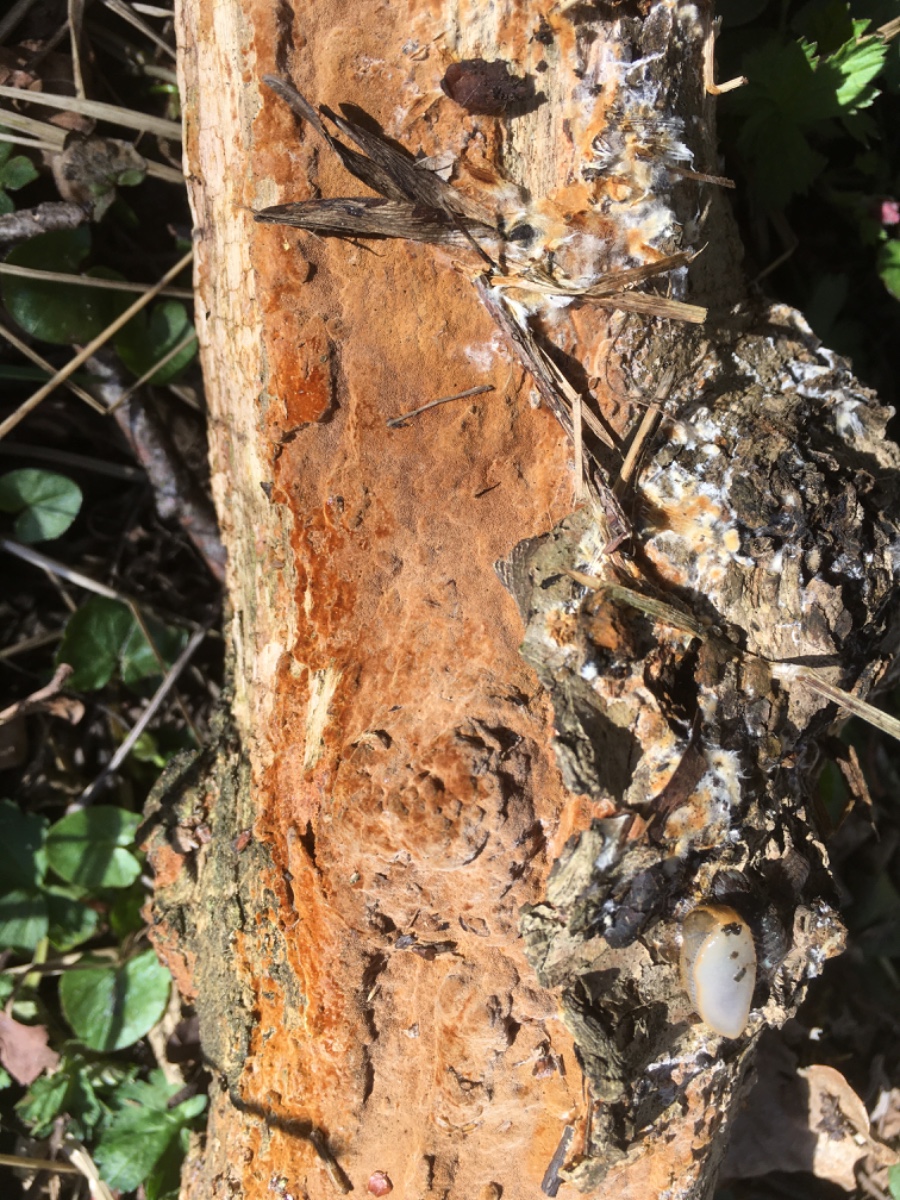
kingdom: Fungi
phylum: Basidiomycota
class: Agaricomycetes
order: Hymenochaetales
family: Hymenochaetaceae
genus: Fuscoporia
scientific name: Fuscoporia ferrea
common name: skorpe-ildporesvamp
